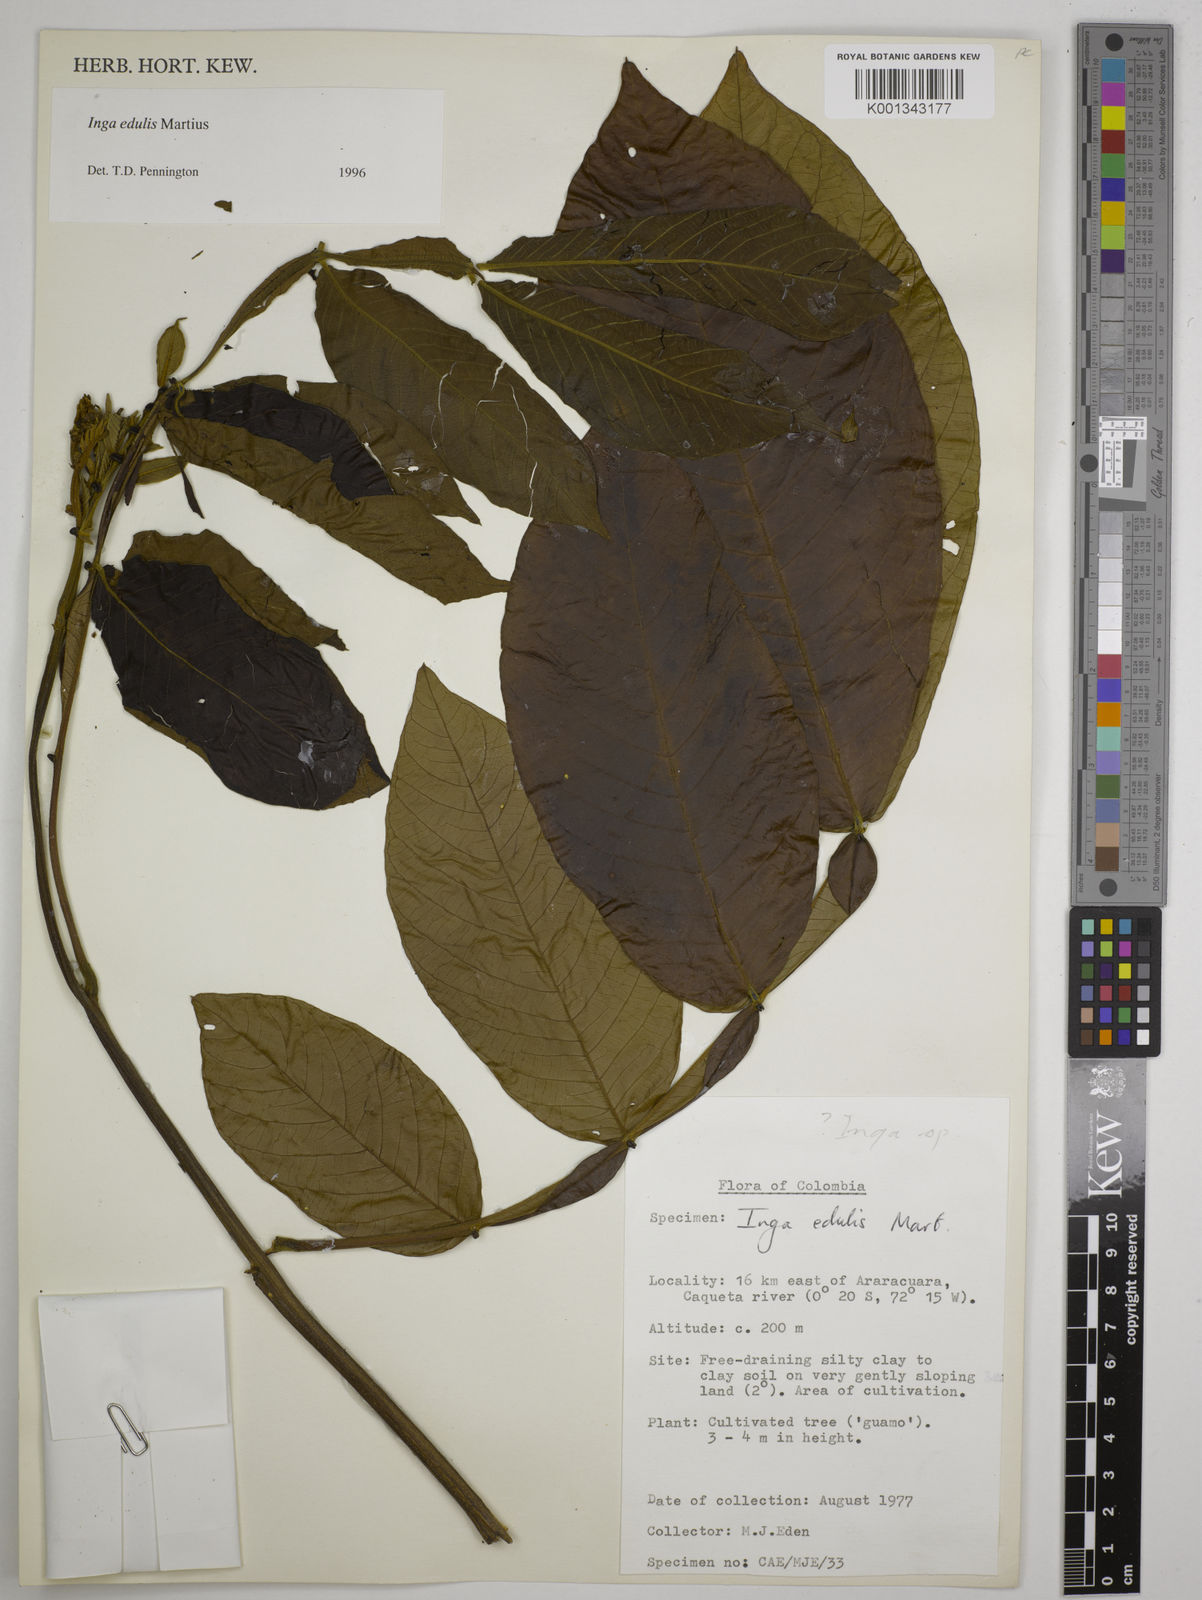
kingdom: Plantae
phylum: Tracheophyta
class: Magnoliopsida
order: Fabales
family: Fabaceae
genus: Inga
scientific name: Inga edulis
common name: Ice cream bean
